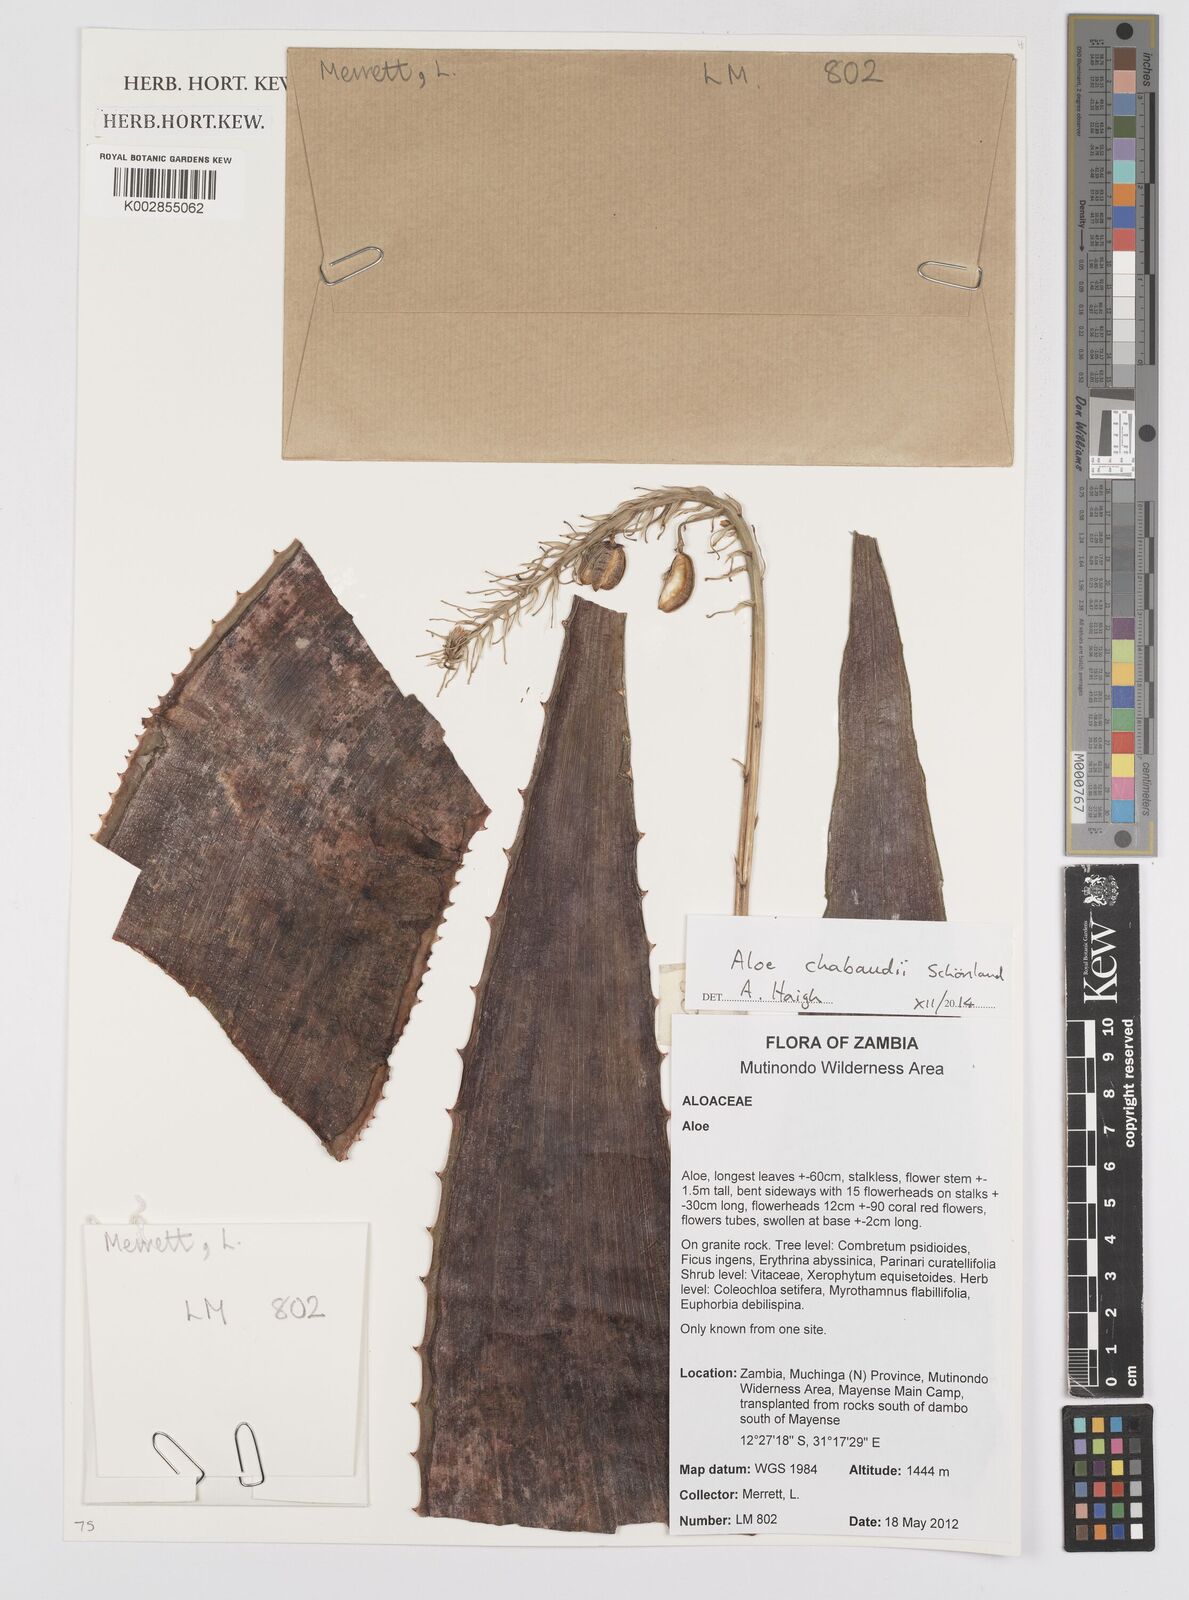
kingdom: Plantae
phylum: Tracheophyta
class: Liliopsida
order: Asparagales
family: Asphodelaceae
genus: Aloe
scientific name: Aloe chabaudii
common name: Chabaud's aloe
